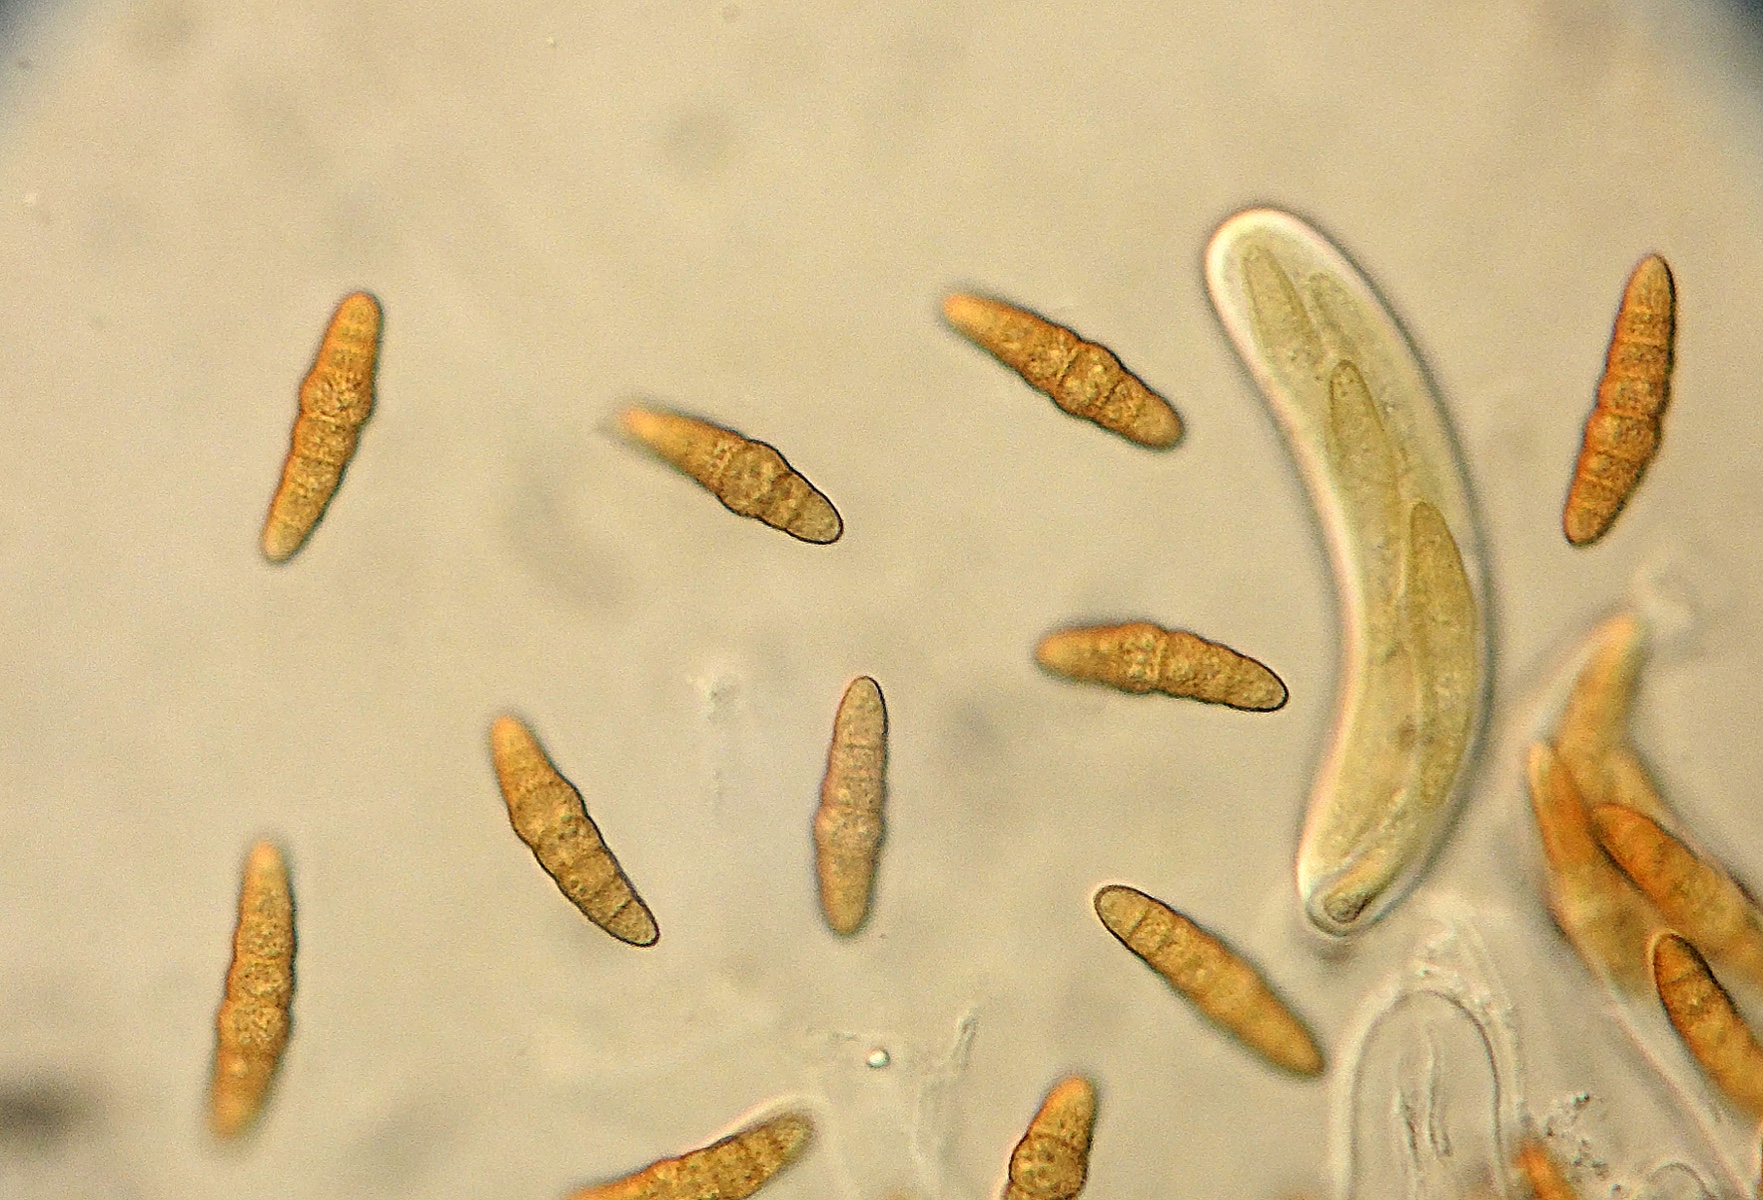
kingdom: Fungi
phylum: Ascomycota
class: Dothideomycetes
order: Pleosporales
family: Leptosphaeriaceae
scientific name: Leptosphaeriaceae
